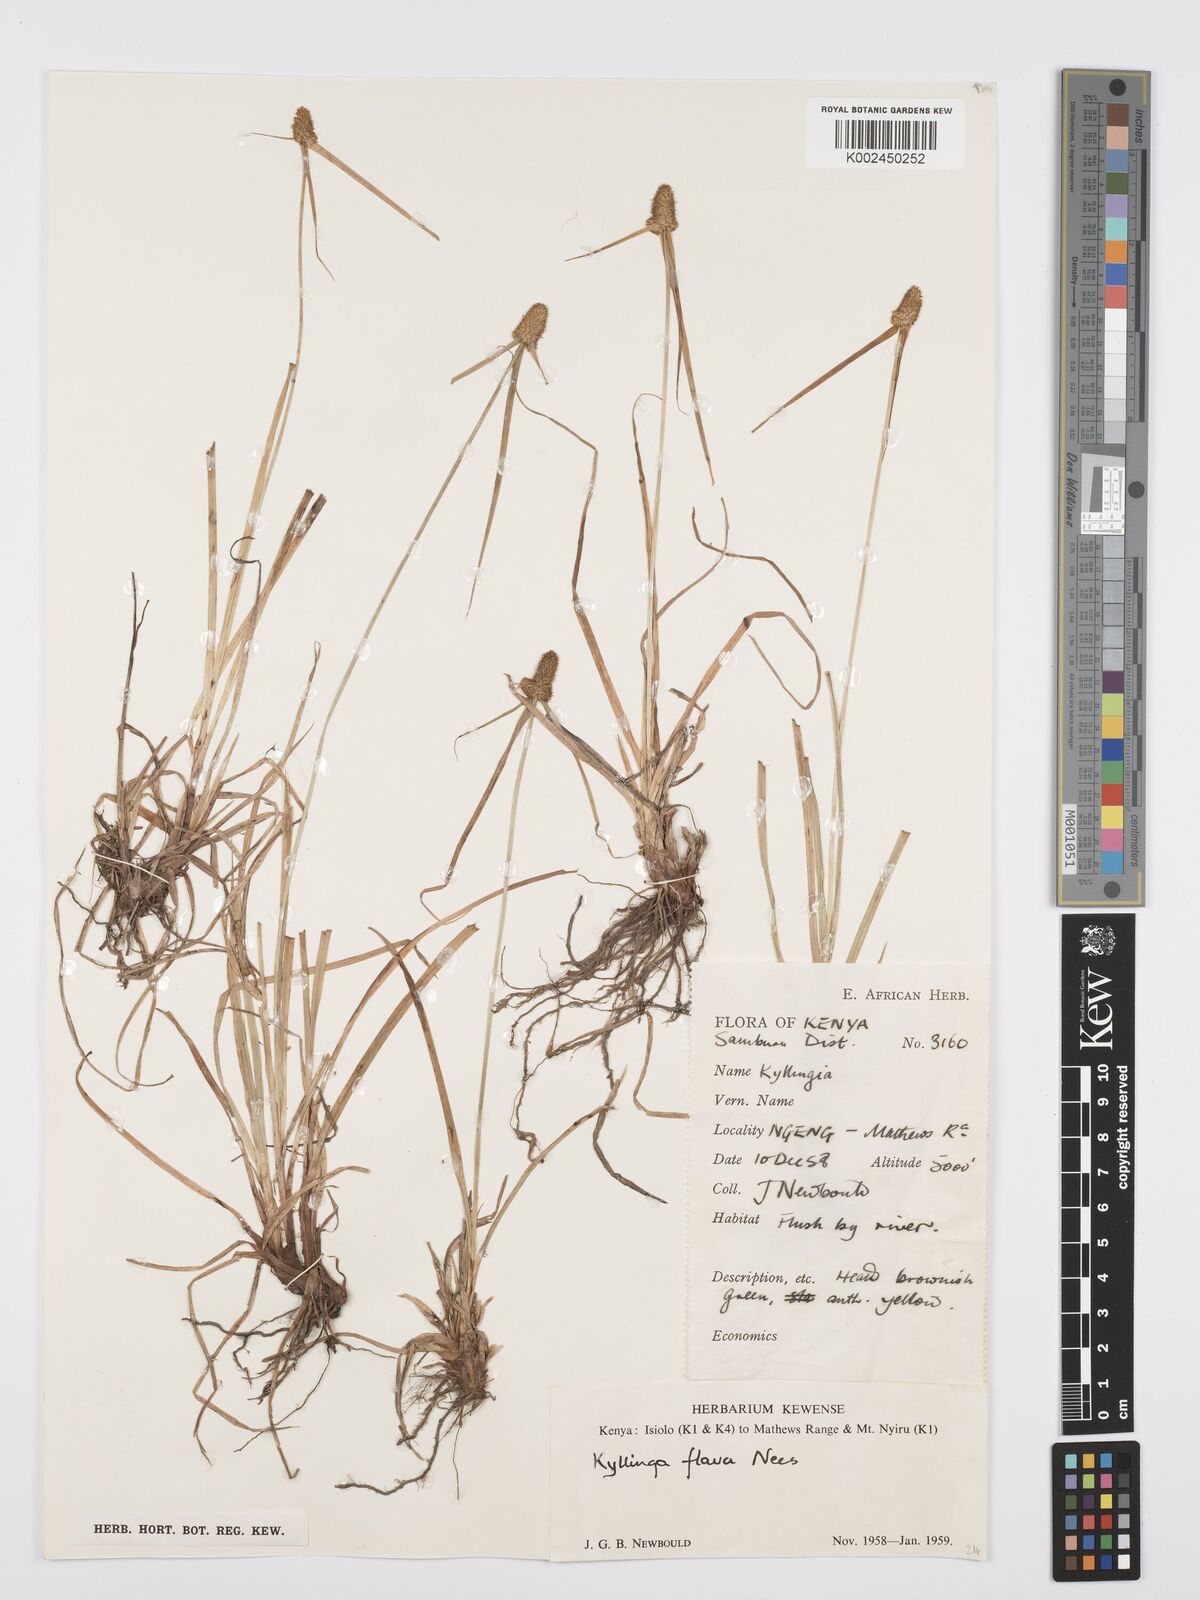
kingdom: Plantae
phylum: Tracheophyta
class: Liliopsida
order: Poales
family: Cyperaceae
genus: Cyperus
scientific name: Cyperus
